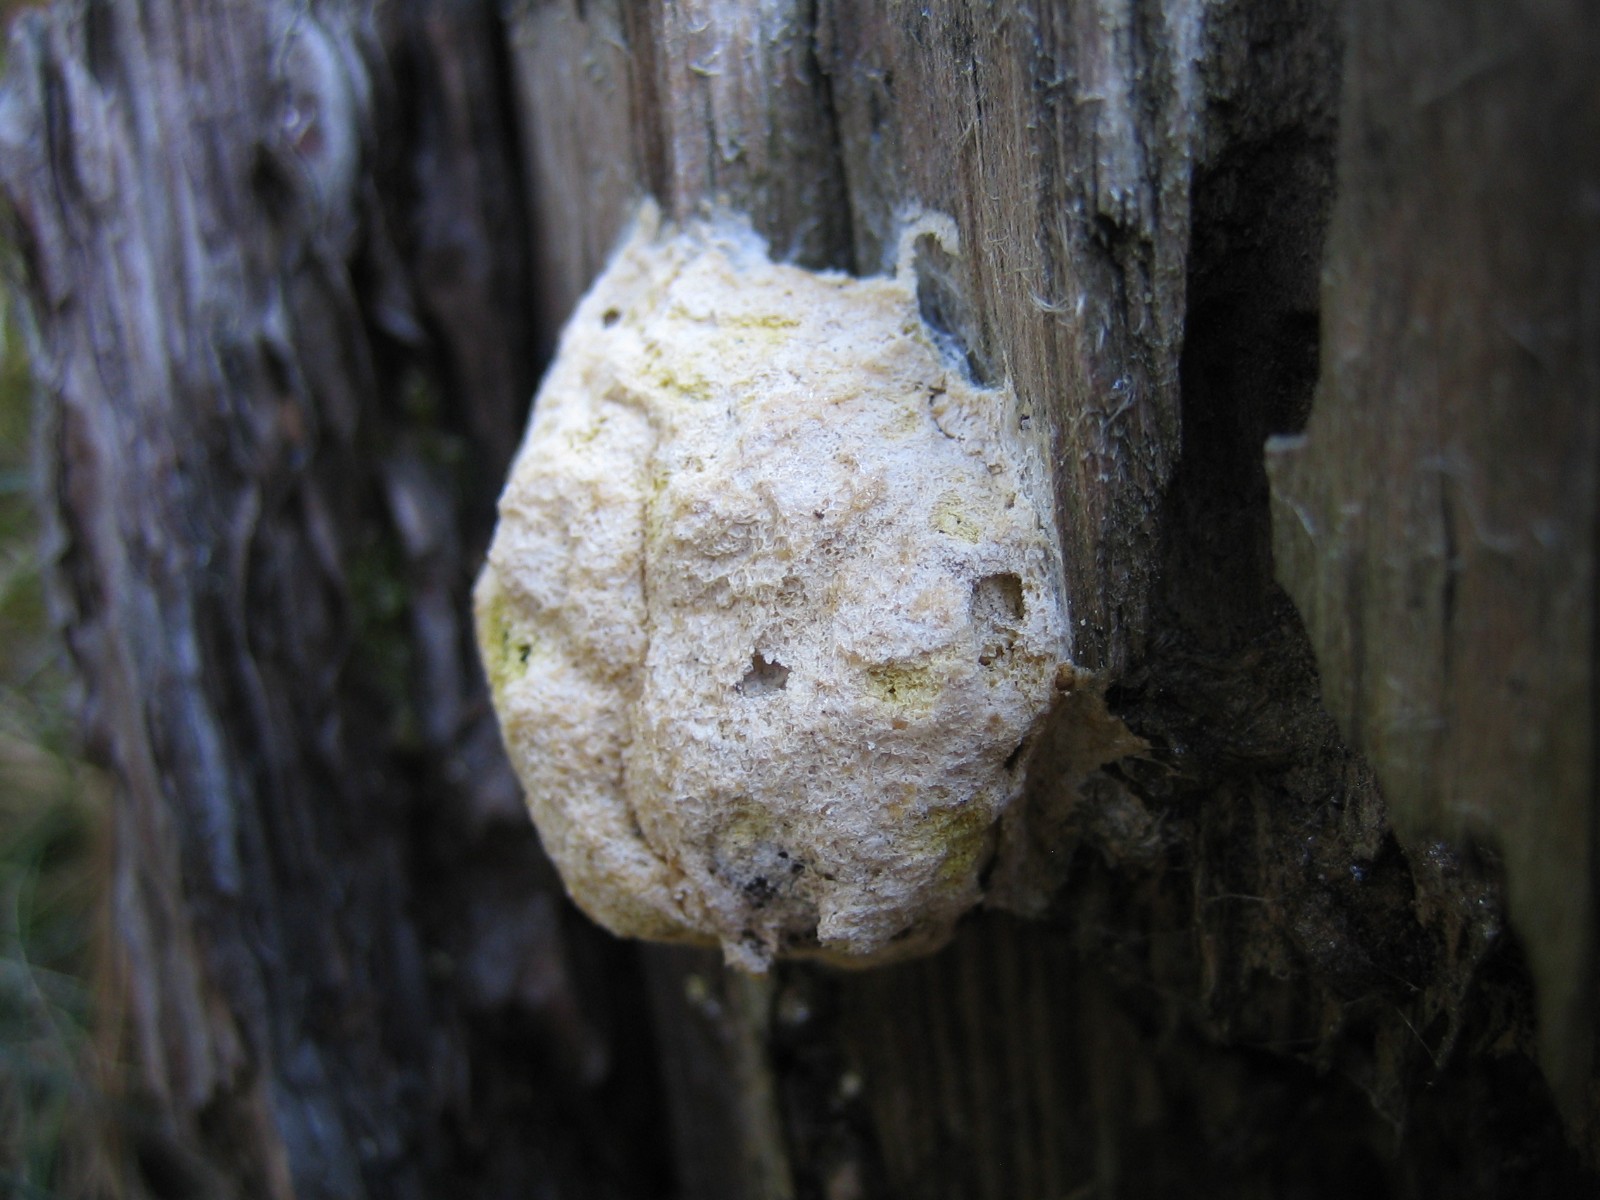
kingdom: Protozoa
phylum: Mycetozoa
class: Myxomycetes
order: Physarales
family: Physaraceae
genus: Fuligo
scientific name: Fuligo septica
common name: gul troldsmør
